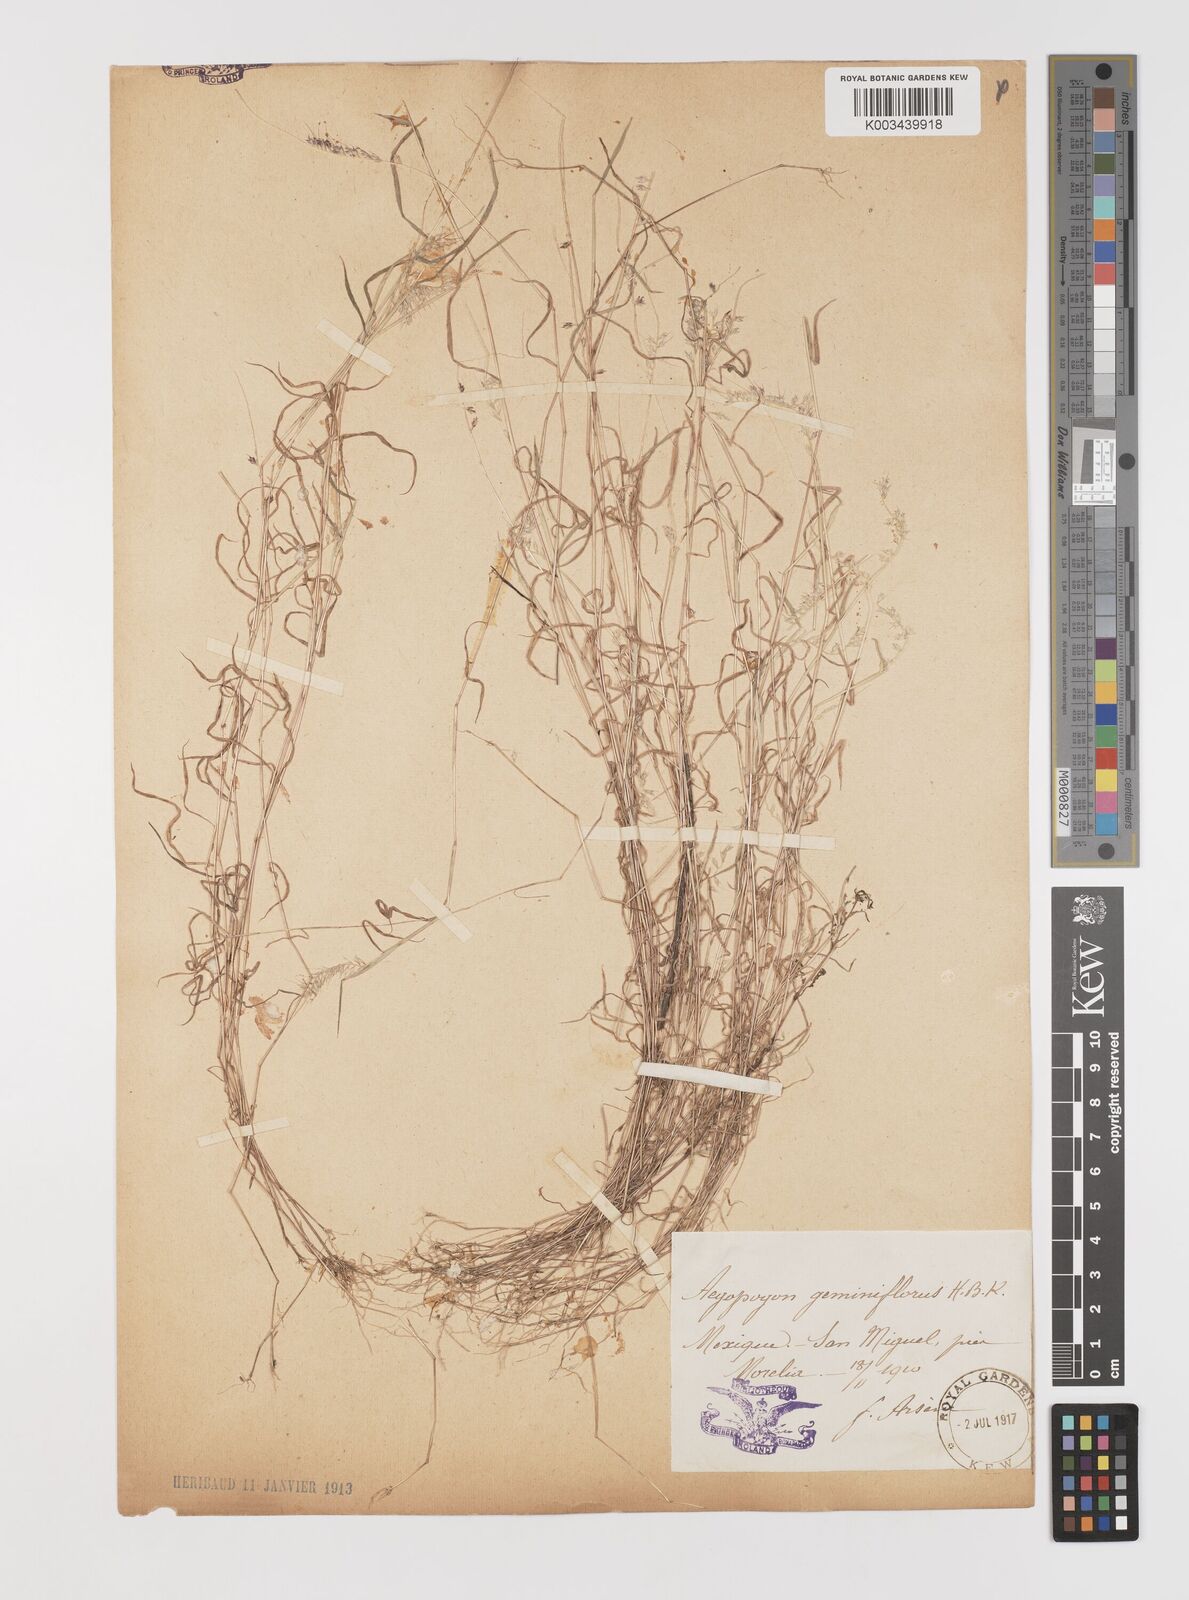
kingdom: Plantae
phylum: Tracheophyta
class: Liliopsida
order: Poales
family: Poaceae
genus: Muhlenbergia
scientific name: Muhlenbergia uniseta
